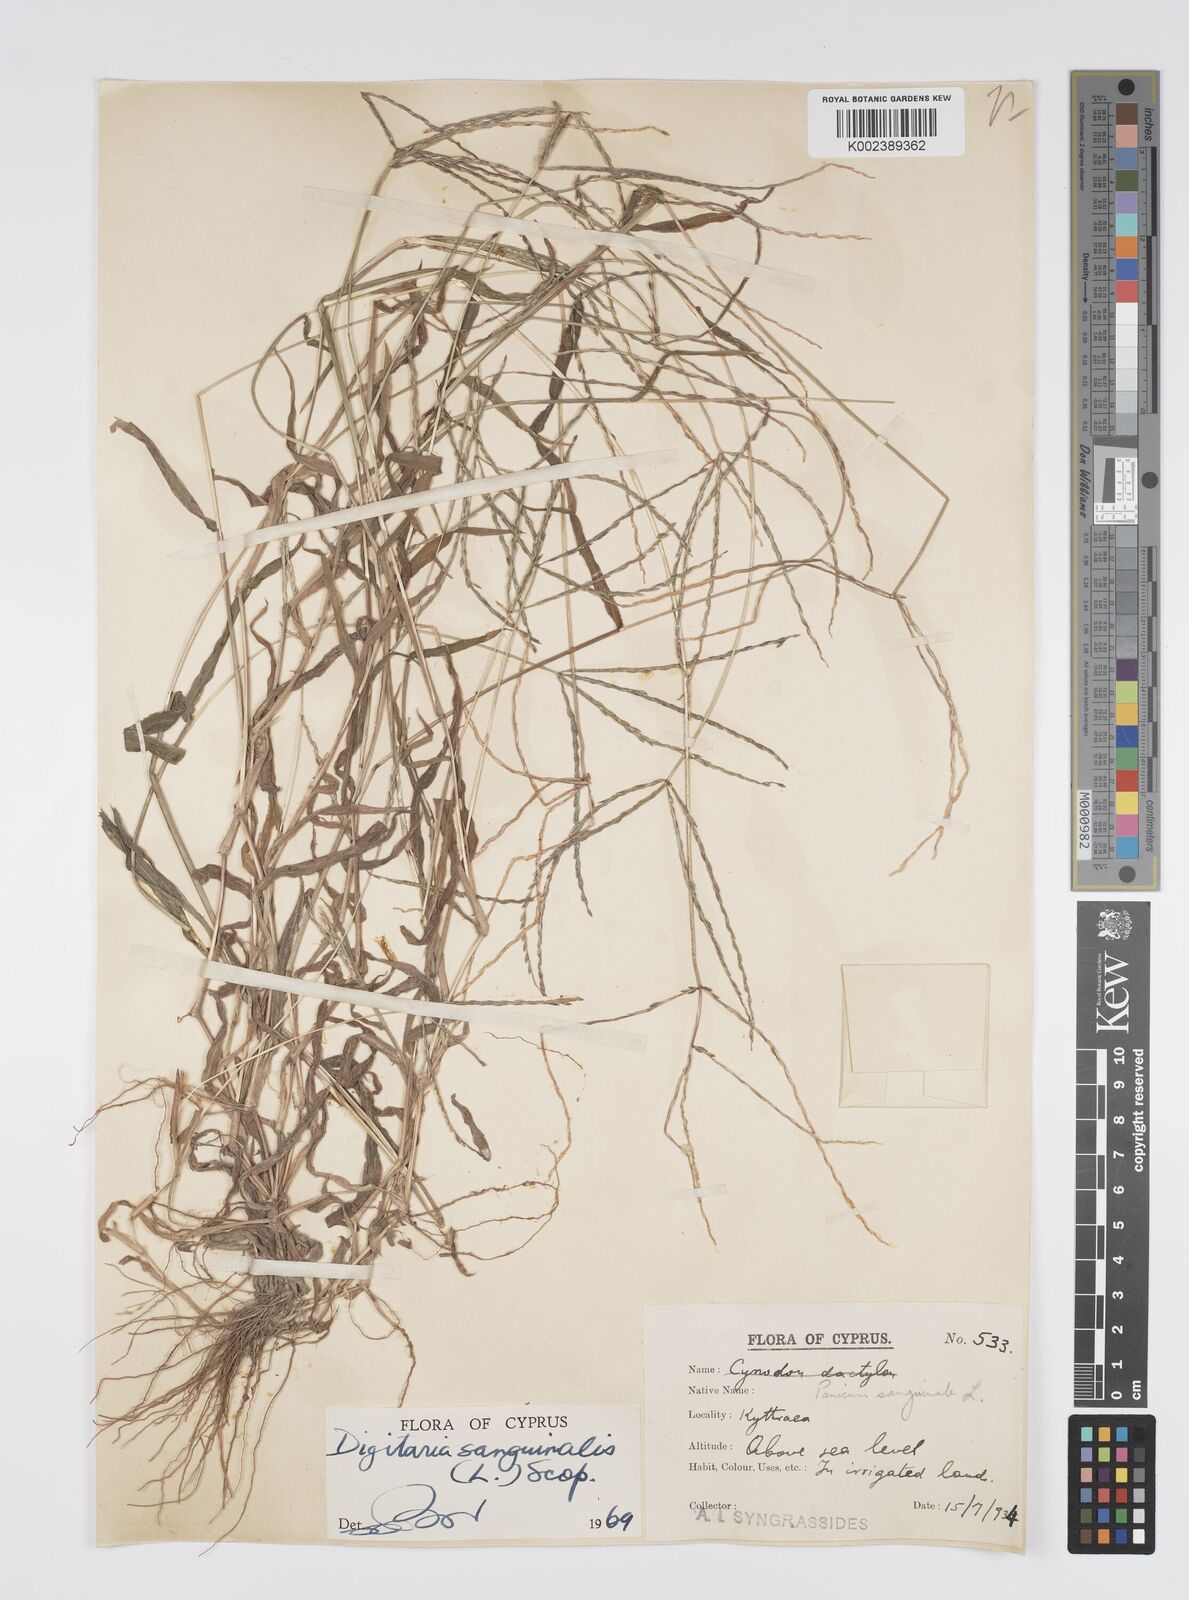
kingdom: Plantae
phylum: Tracheophyta
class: Liliopsida
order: Poales
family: Poaceae
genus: Digitaria
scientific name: Digitaria sanguinalis
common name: Hairy crabgrass
